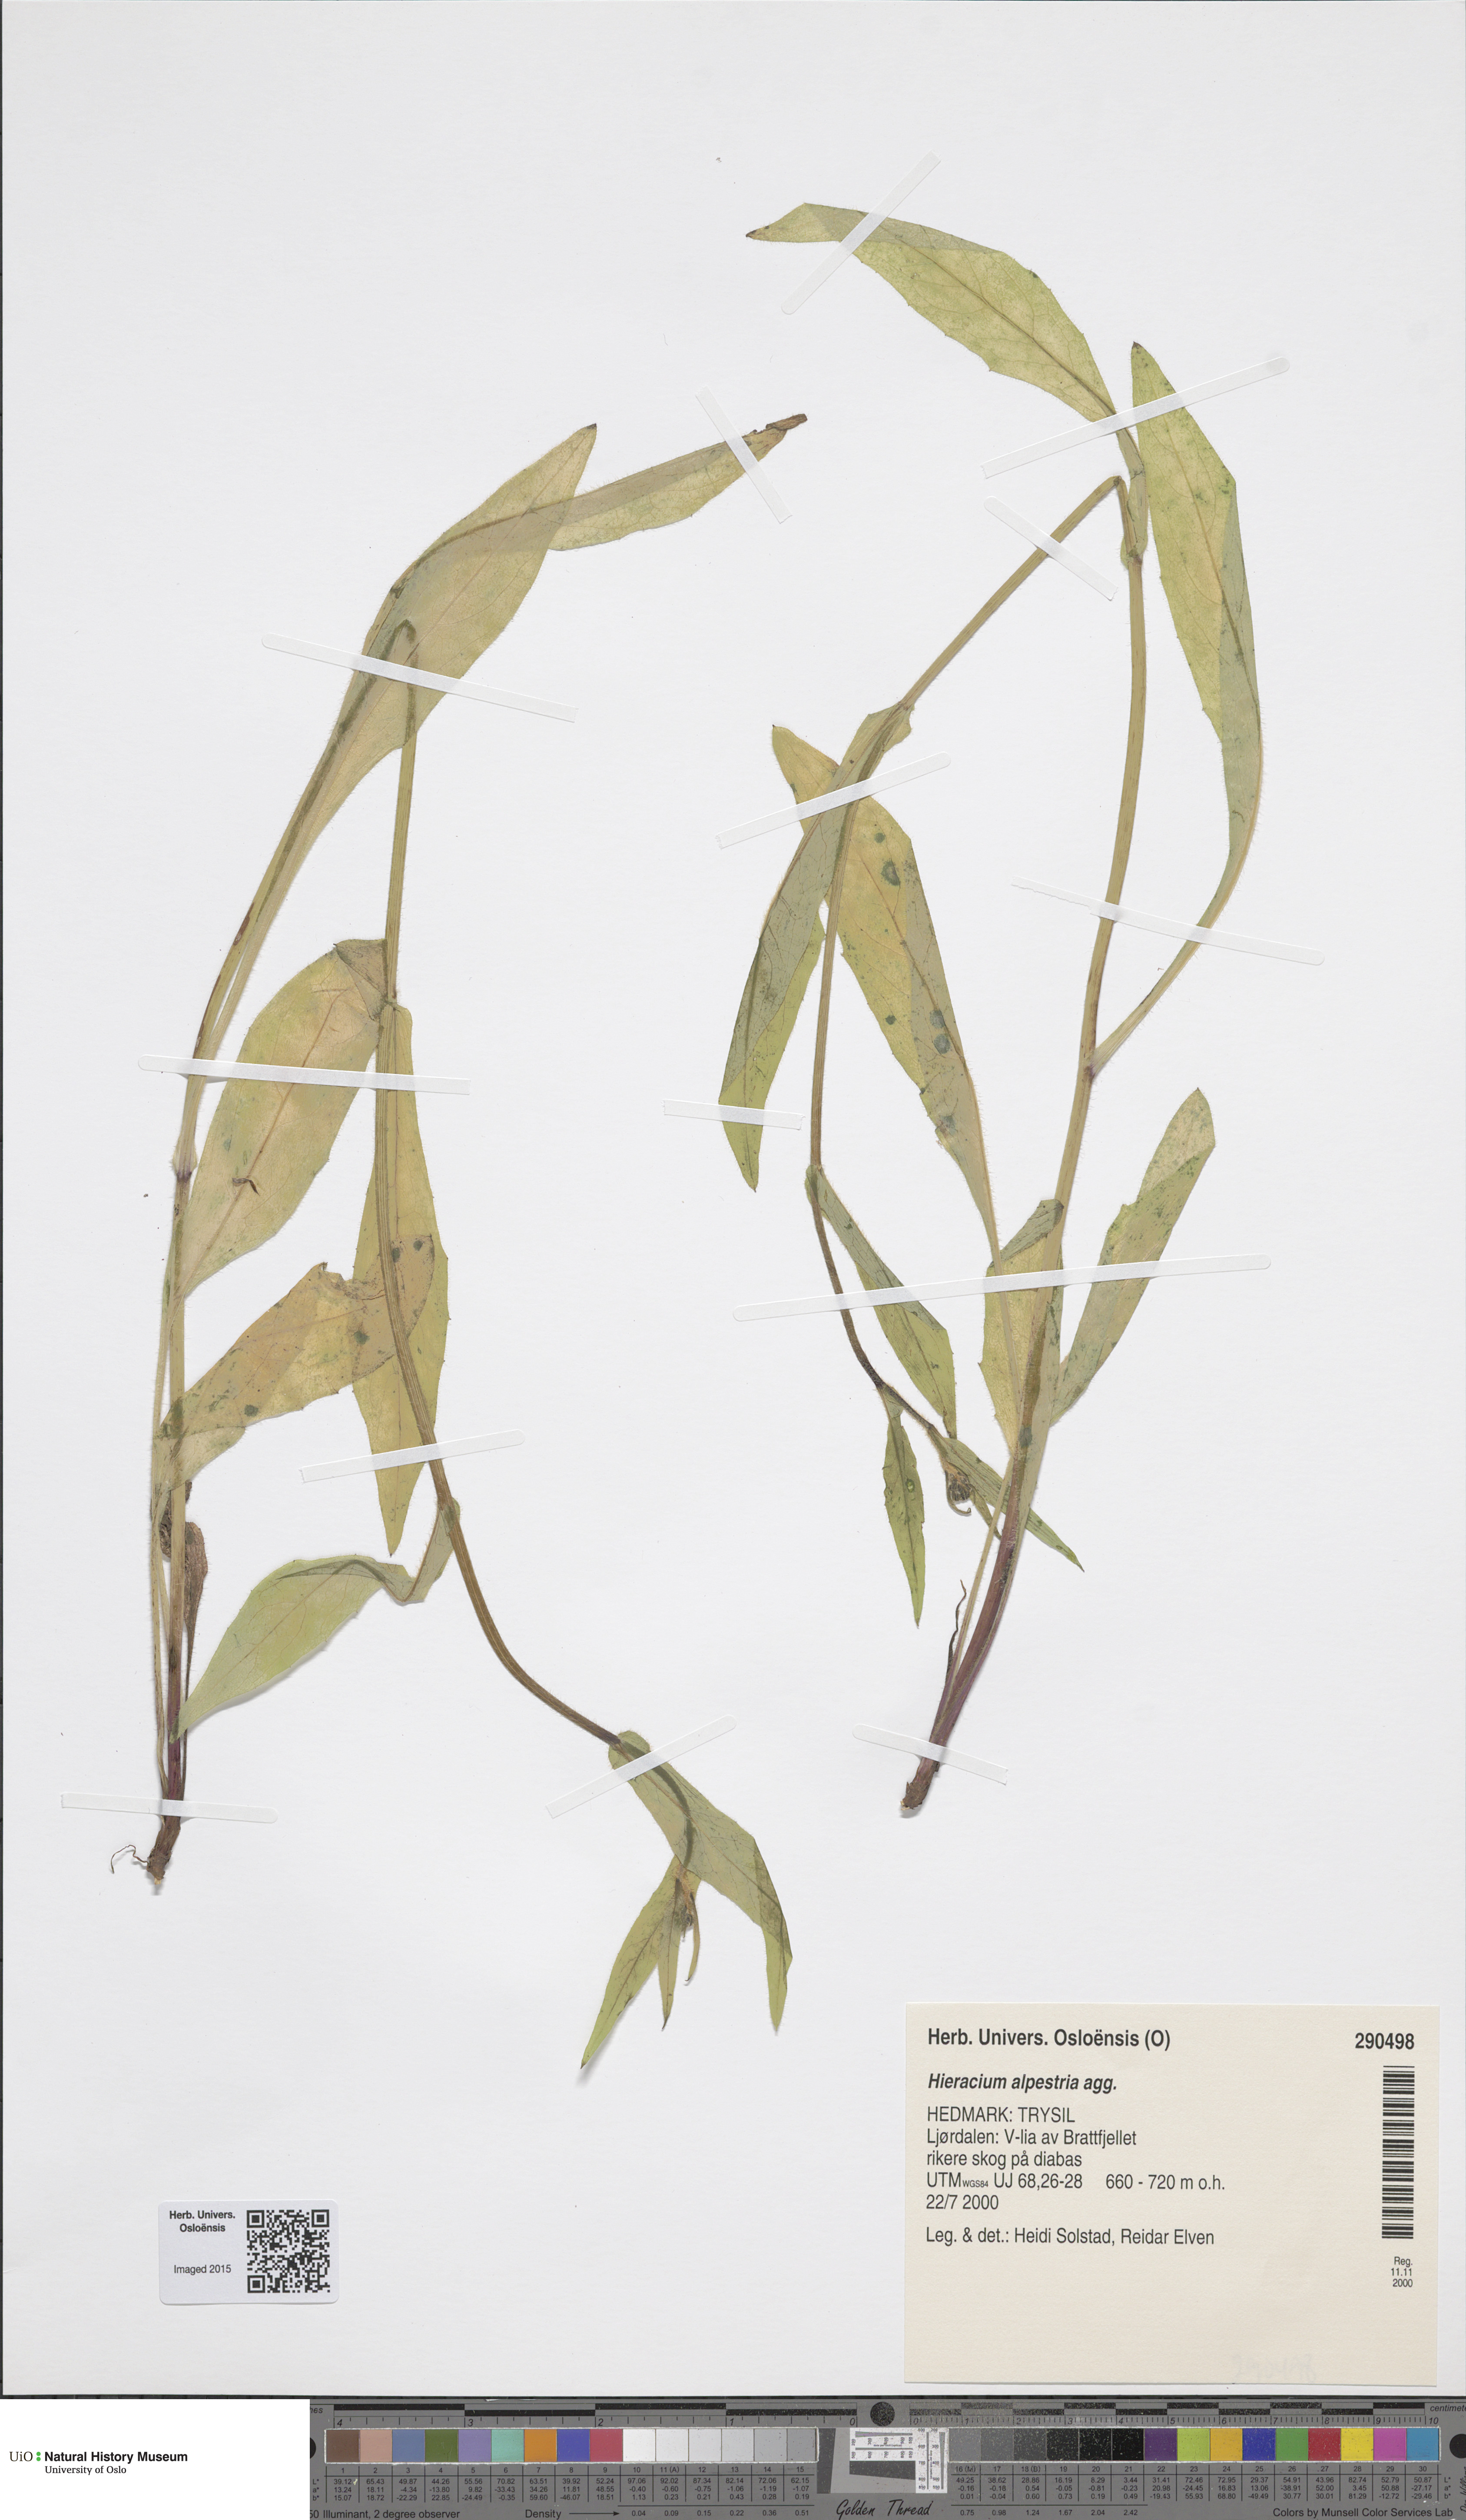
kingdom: Plantae
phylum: Tracheophyta
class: Magnoliopsida
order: Asterales
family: Asteraceae
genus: Hieracium
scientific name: Hieracium dovrense
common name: Dovre hawkweed
